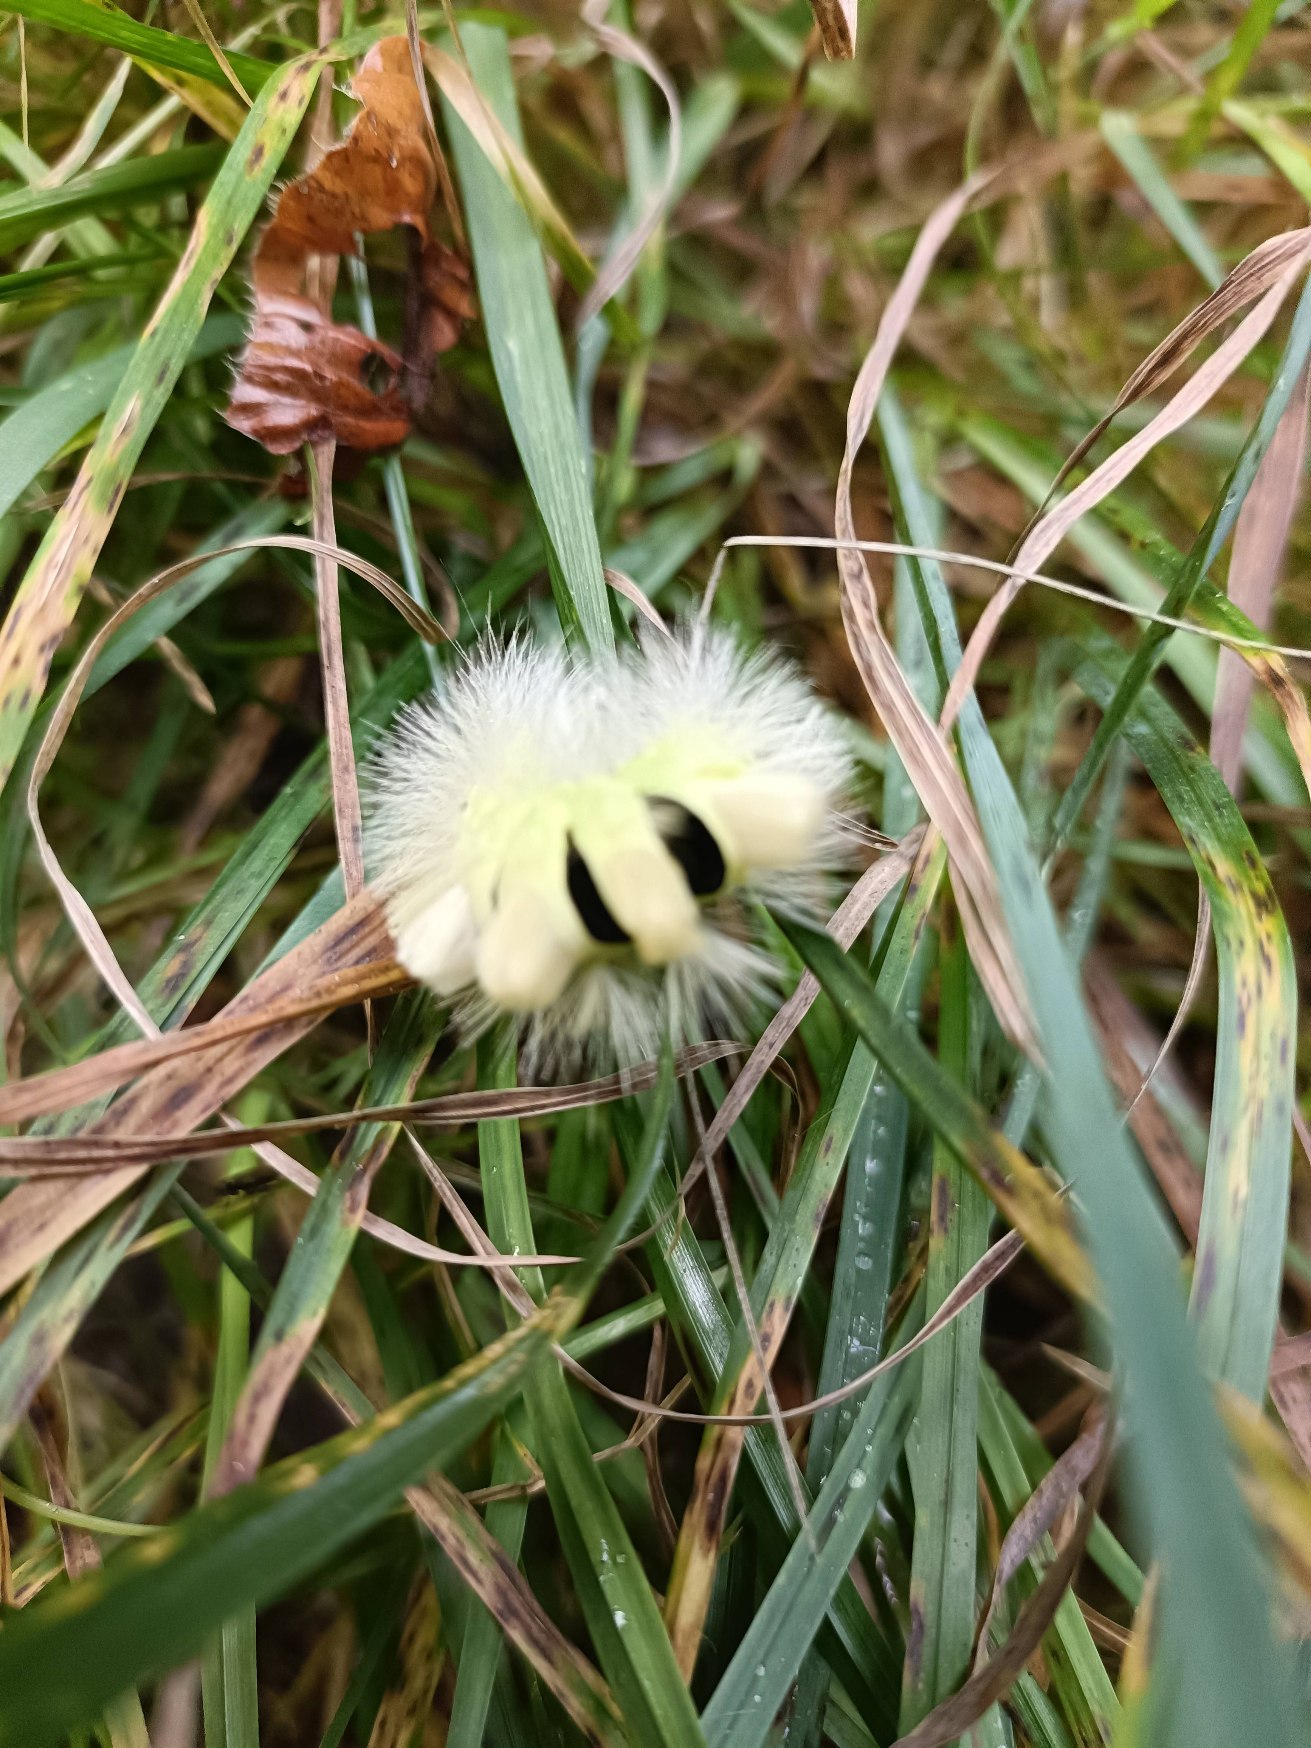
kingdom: Animalia
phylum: Arthropoda
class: Insecta
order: Lepidoptera
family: Erebidae
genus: Calliteara
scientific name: Calliteara pudibunda
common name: Bøgenonne
